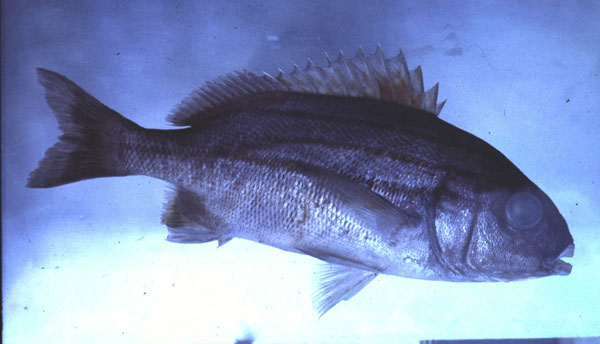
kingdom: Animalia
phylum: Chordata
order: Perciformes
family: Haemulidae
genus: Pomadasys
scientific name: Pomadasys striatus
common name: Striped grunter
